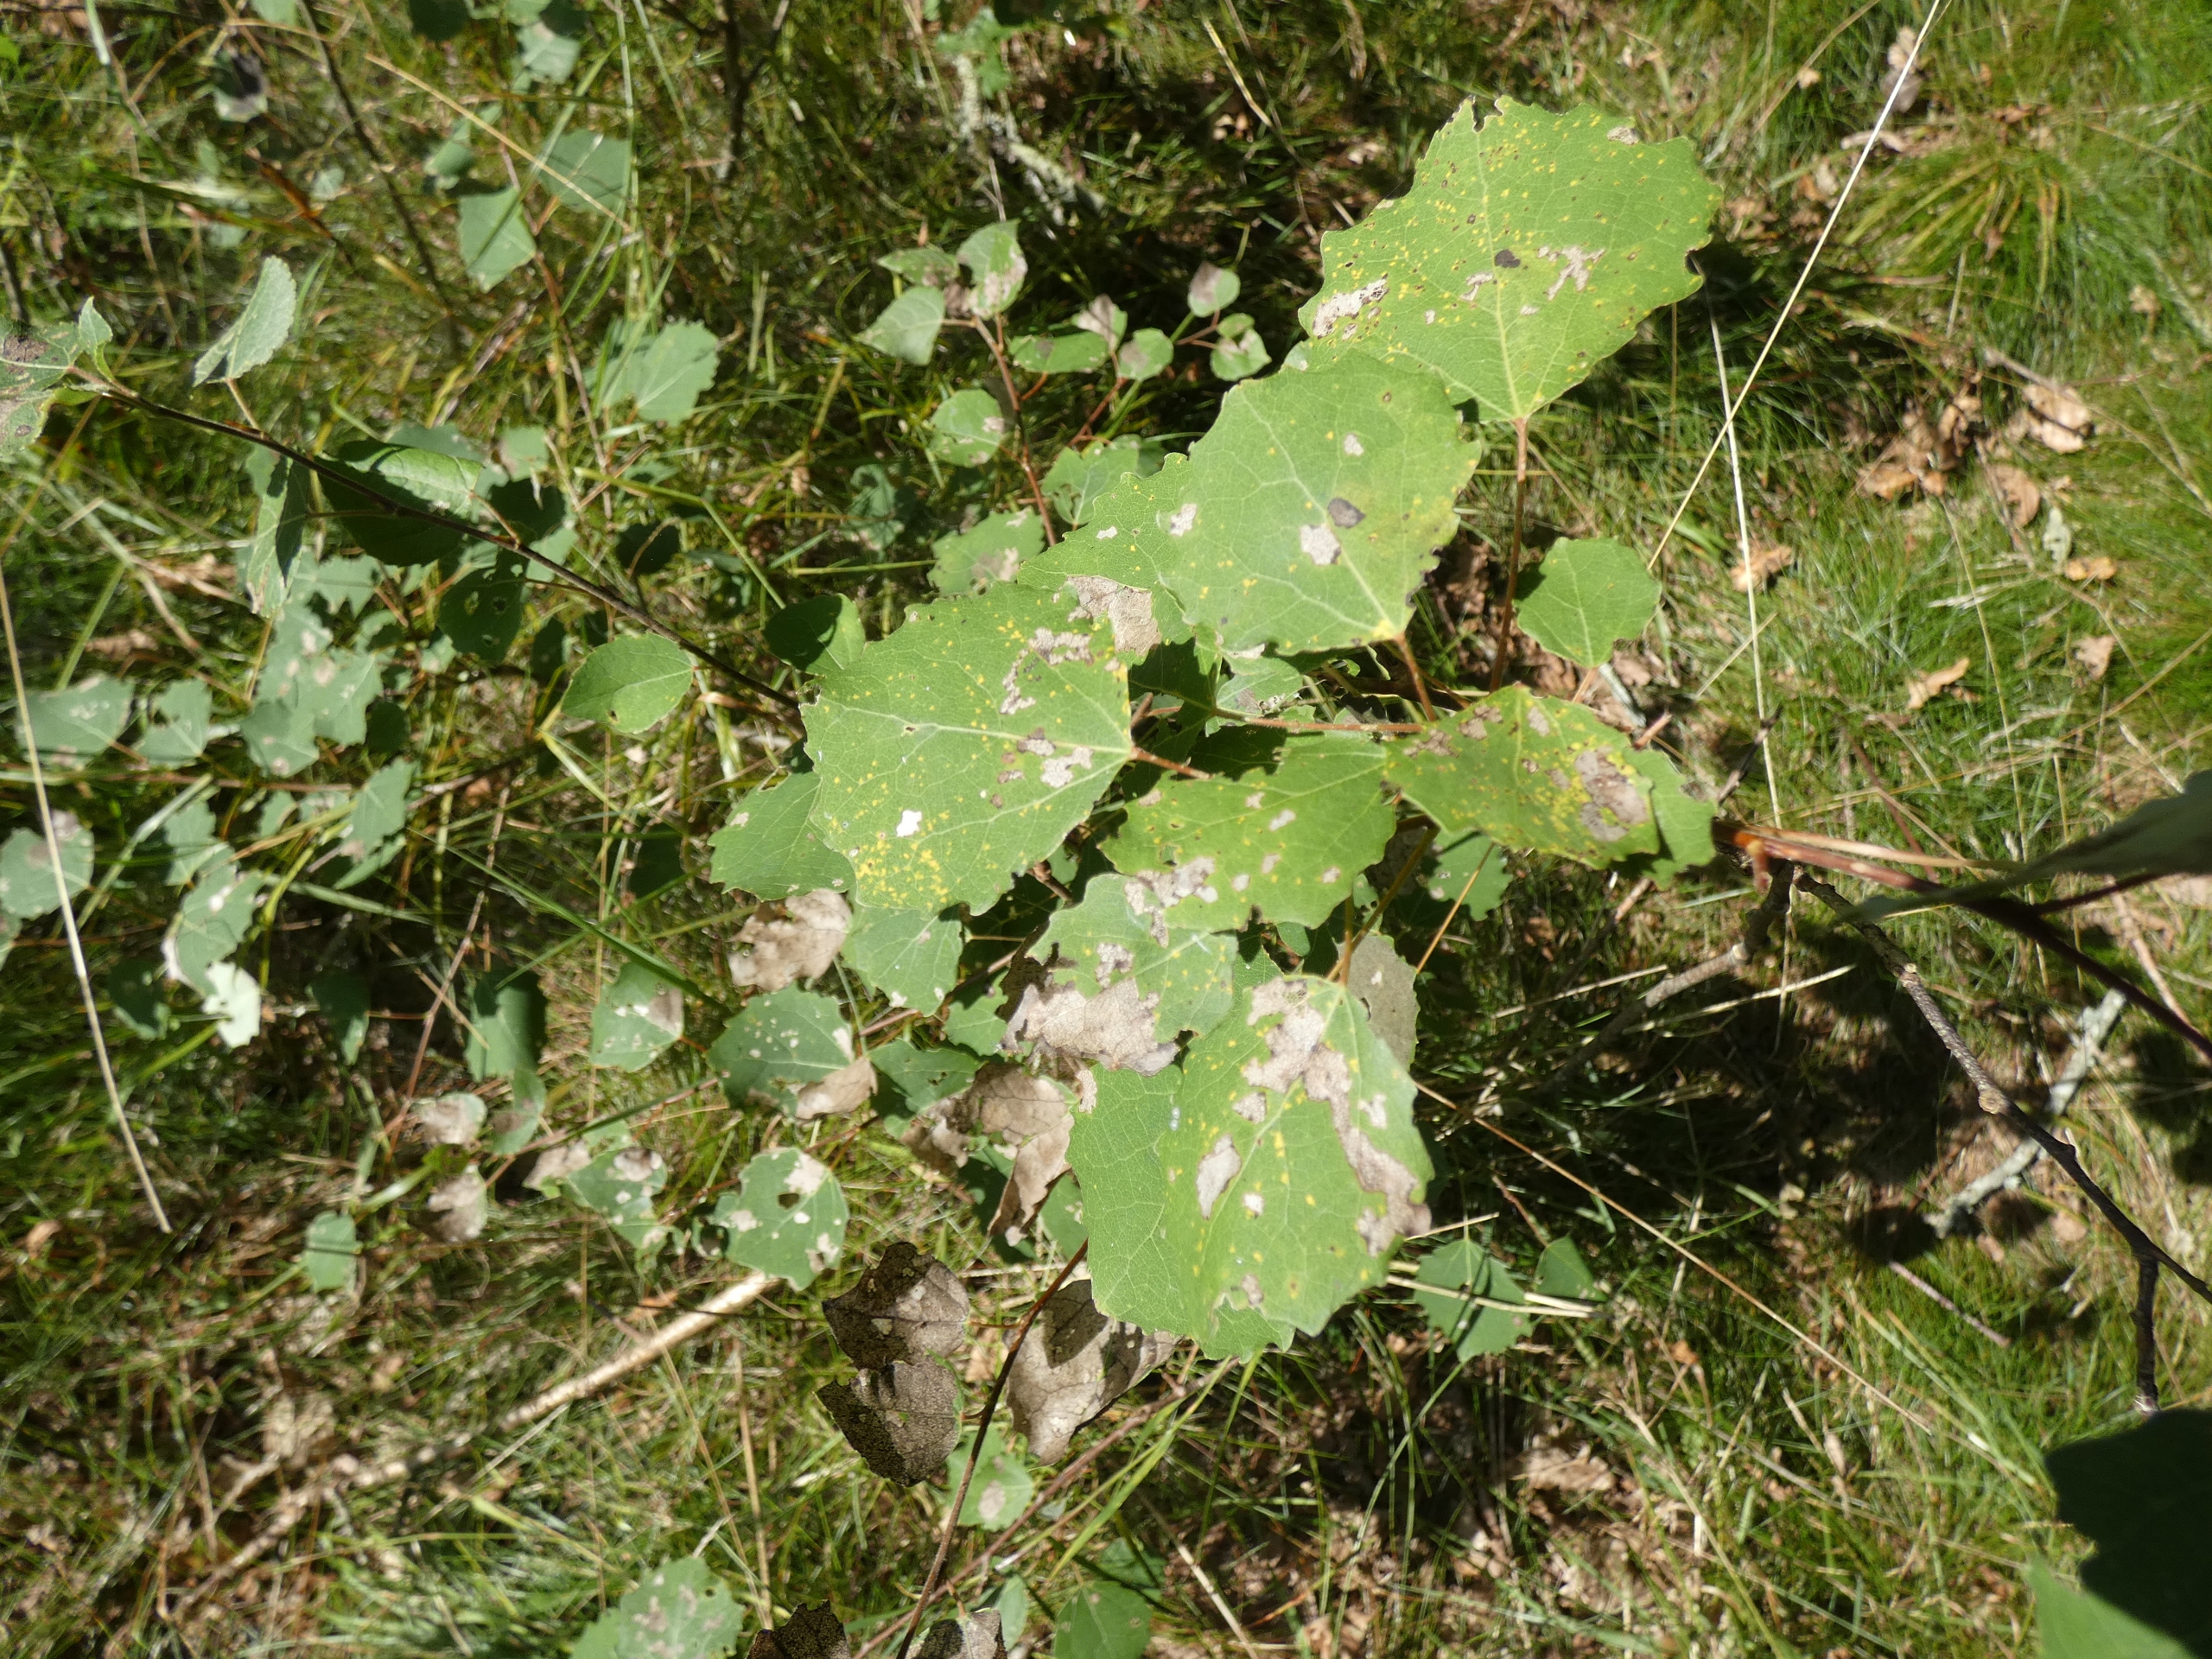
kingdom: Plantae
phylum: Tracheophyta
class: Magnoliopsida
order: Malpighiales
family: Salicaceae
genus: Populus
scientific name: Populus tremula
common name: Bævreasp
